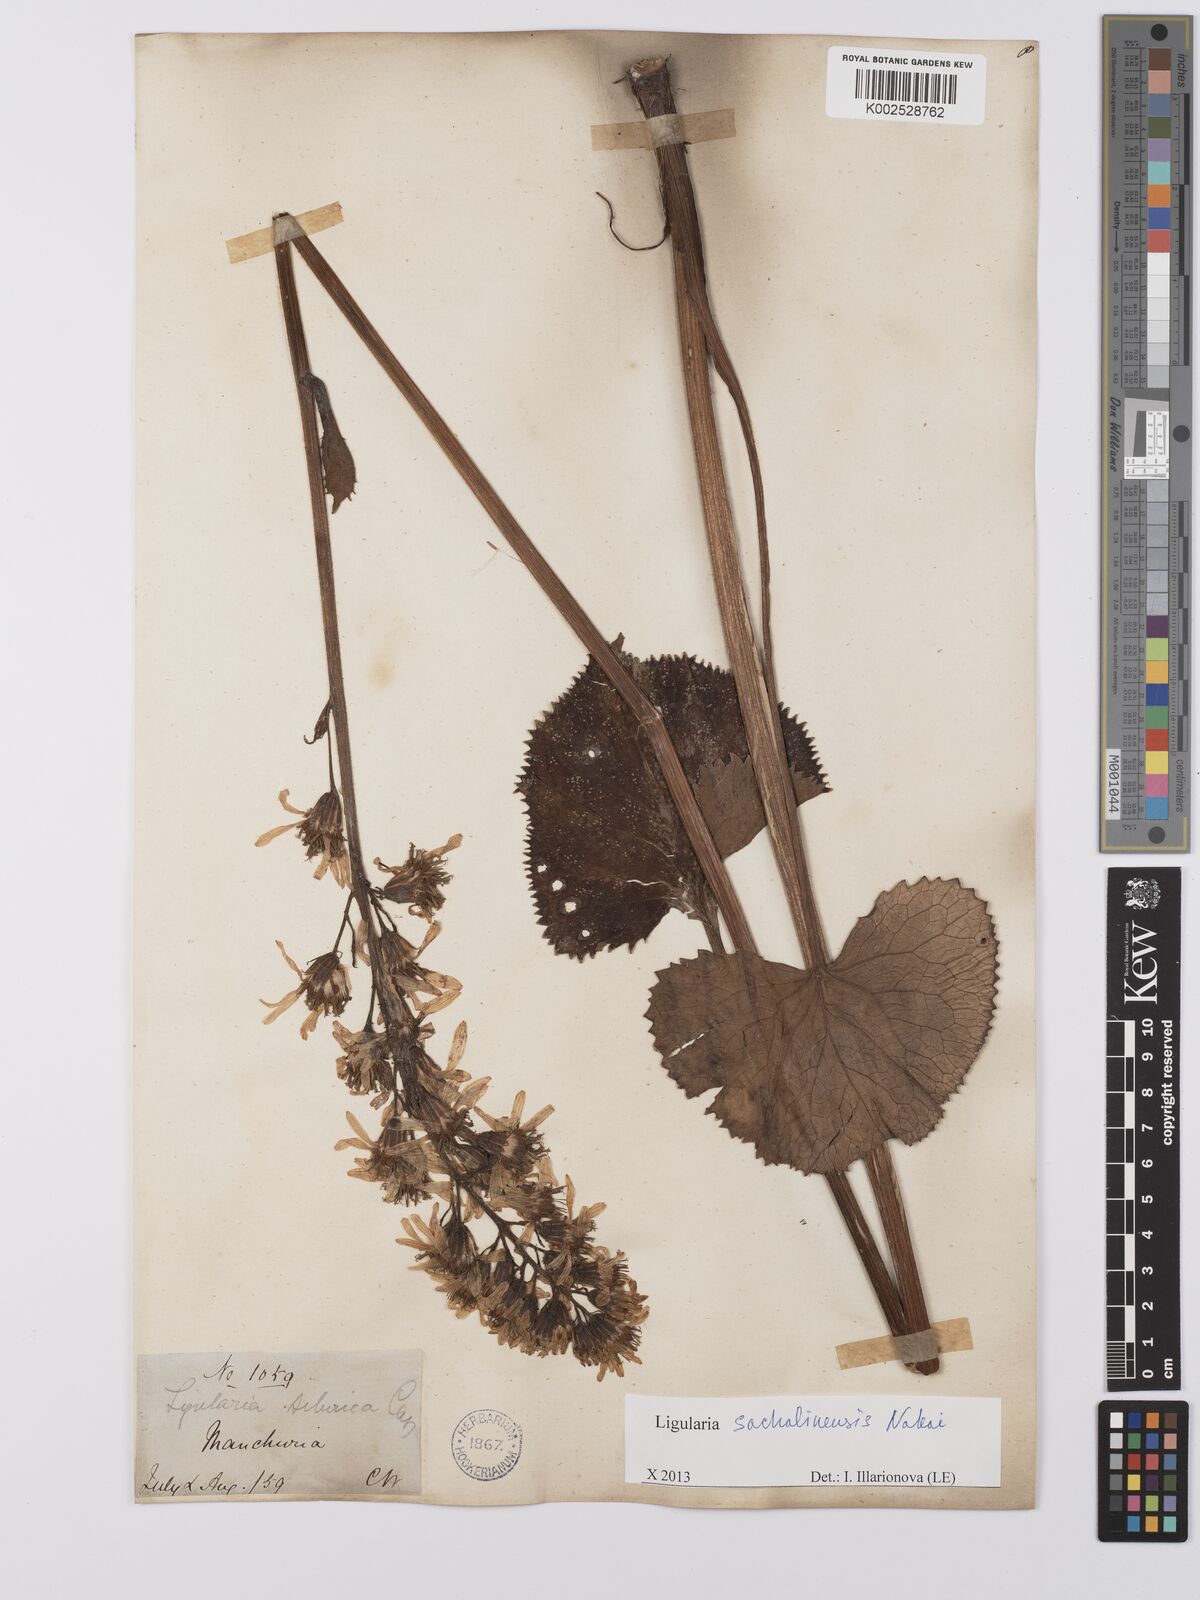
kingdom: Plantae
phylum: Tracheophyta
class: Magnoliopsida
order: Asterales
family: Asteraceae
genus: Ligularia
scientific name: Ligularia sachalinensis
